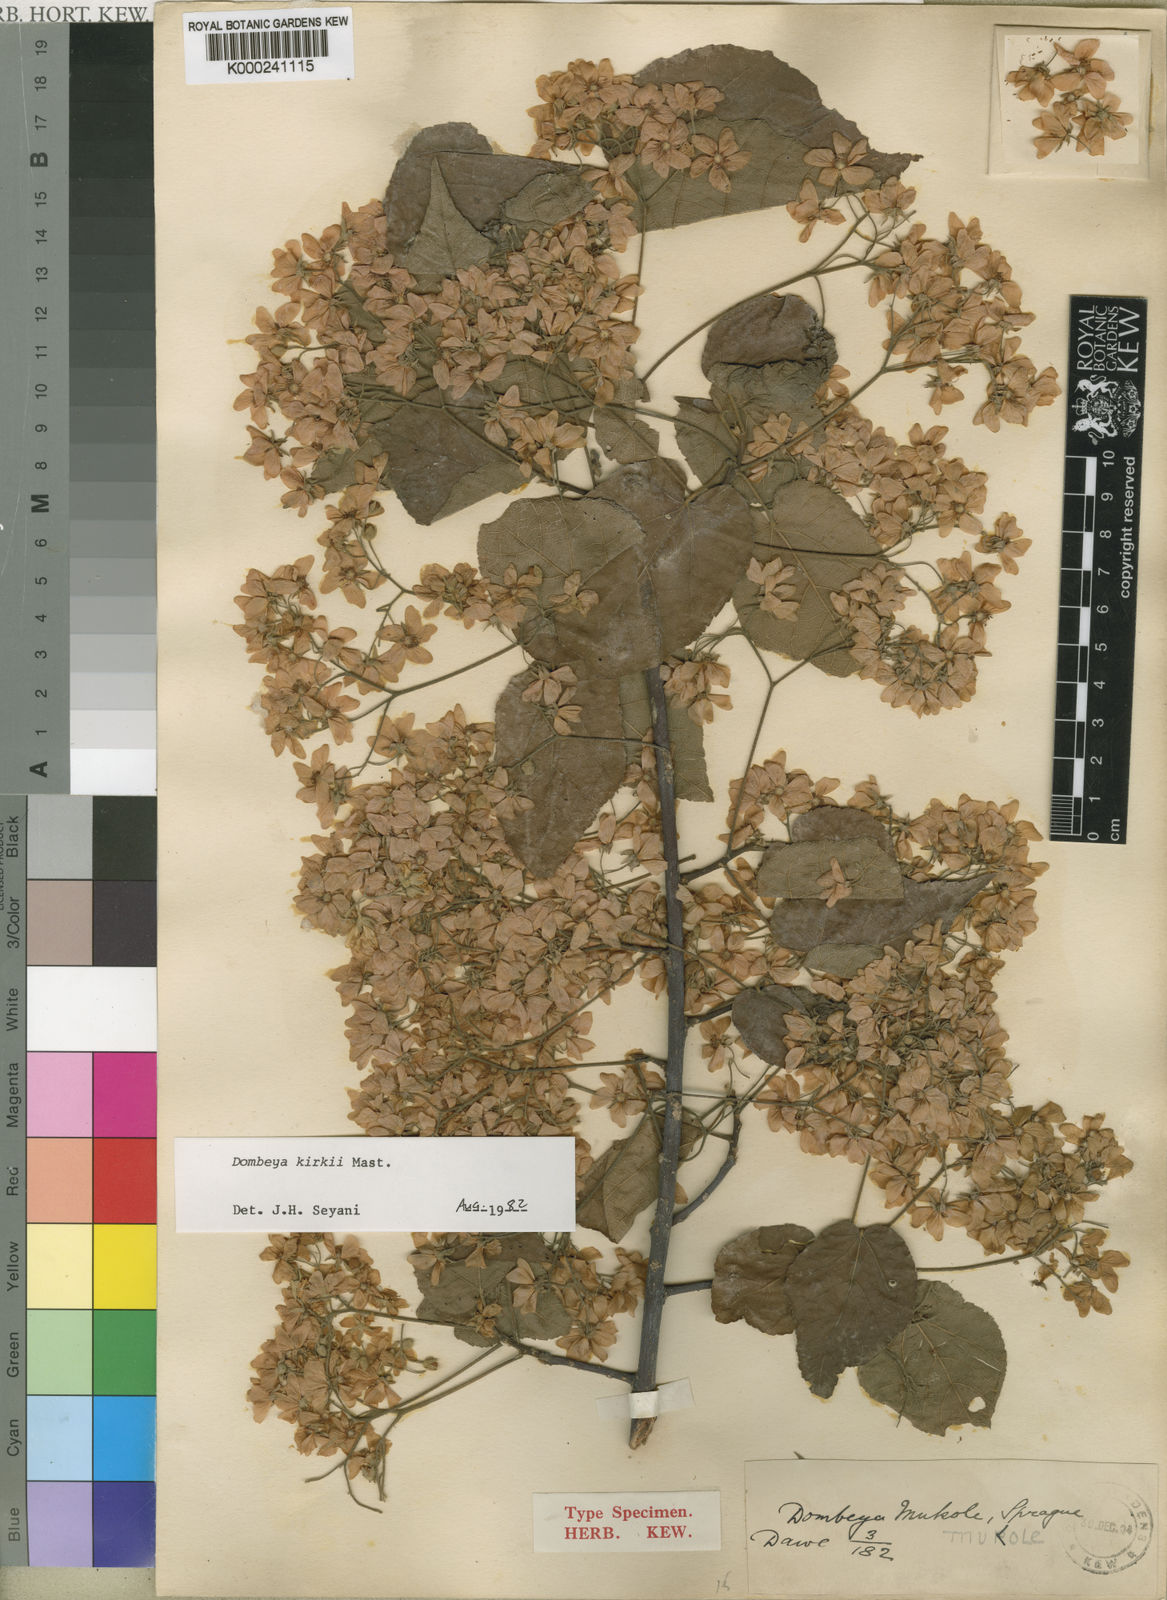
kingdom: Plantae
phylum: Tracheophyta
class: Magnoliopsida
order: Malvales
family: Malvaceae
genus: Dombeya
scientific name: Dombeya kirkii
